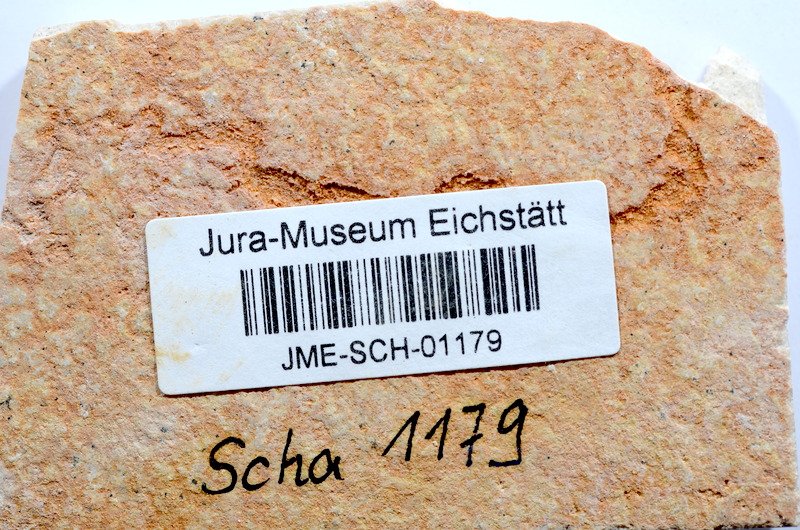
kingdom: Animalia
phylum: Chordata
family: Ascalaboidae
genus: Tharsis
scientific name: Tharsis dubius
